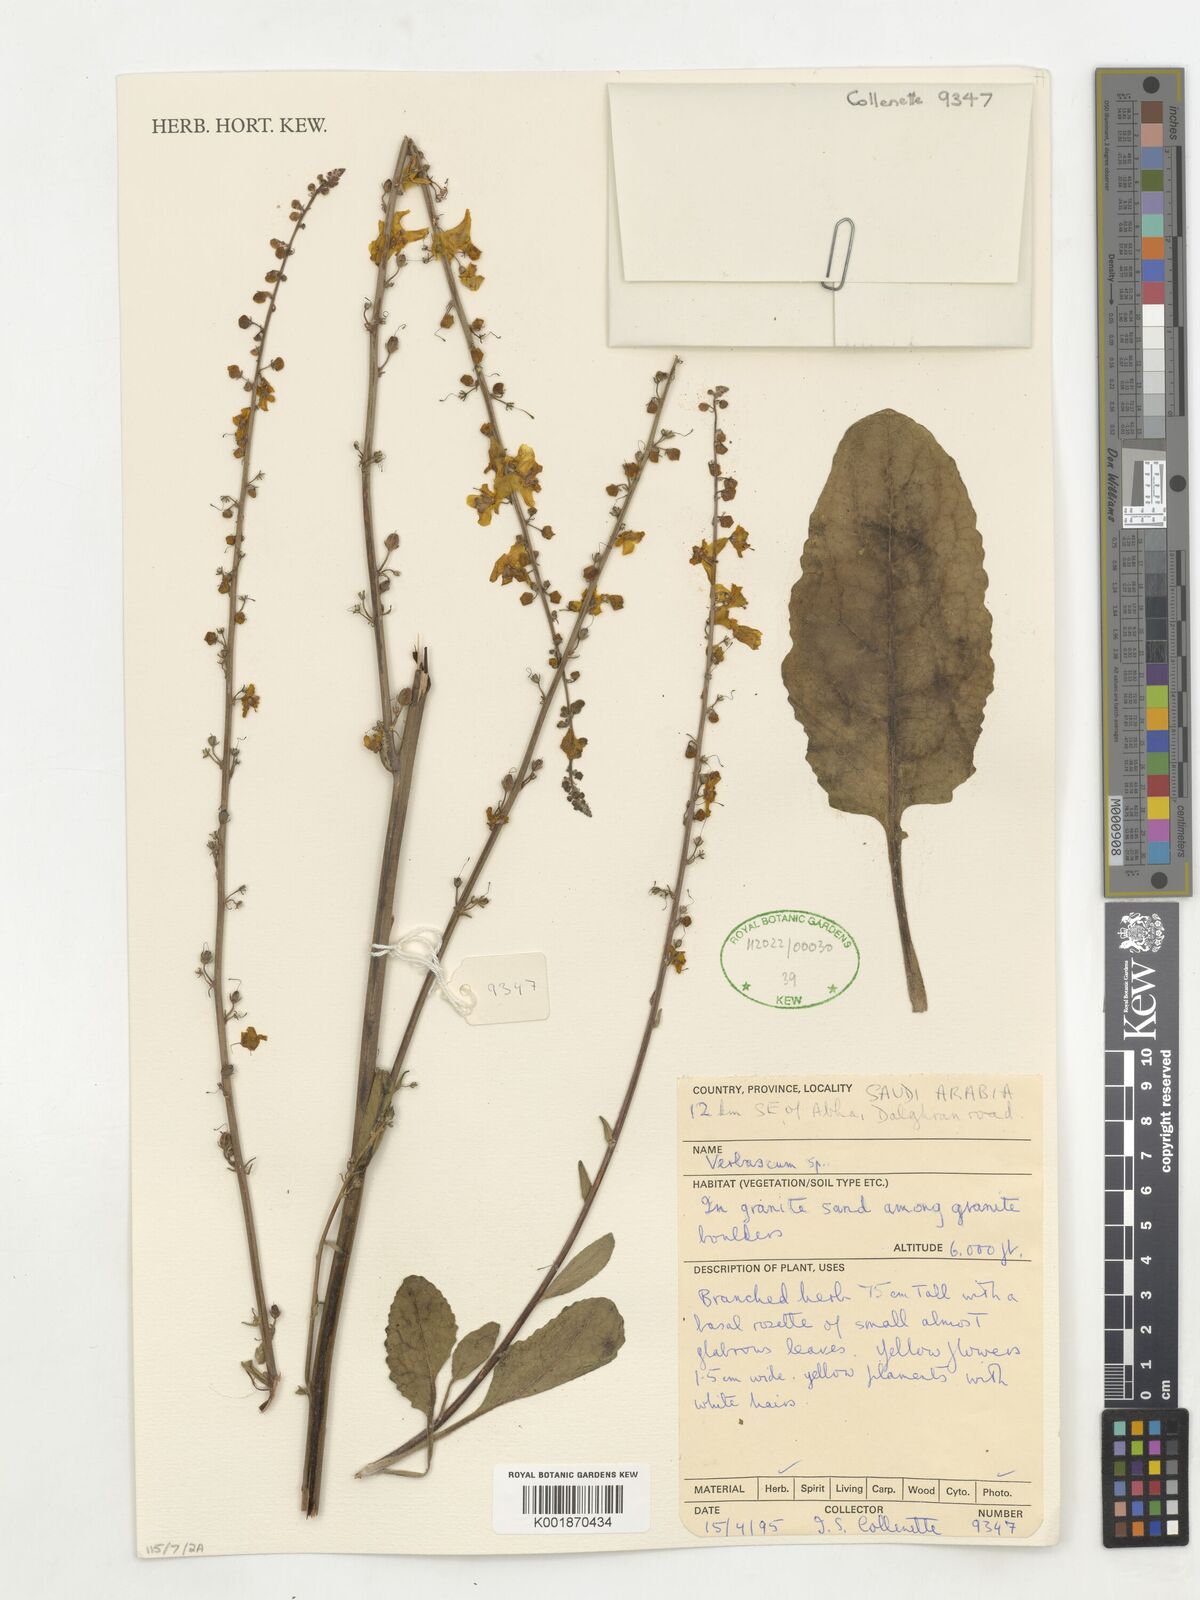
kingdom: Plantae
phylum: Tracheophyta
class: Magnoliopsida
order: Lamiales
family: Scrophulariaceae
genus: Verbascum
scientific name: Verbascum
